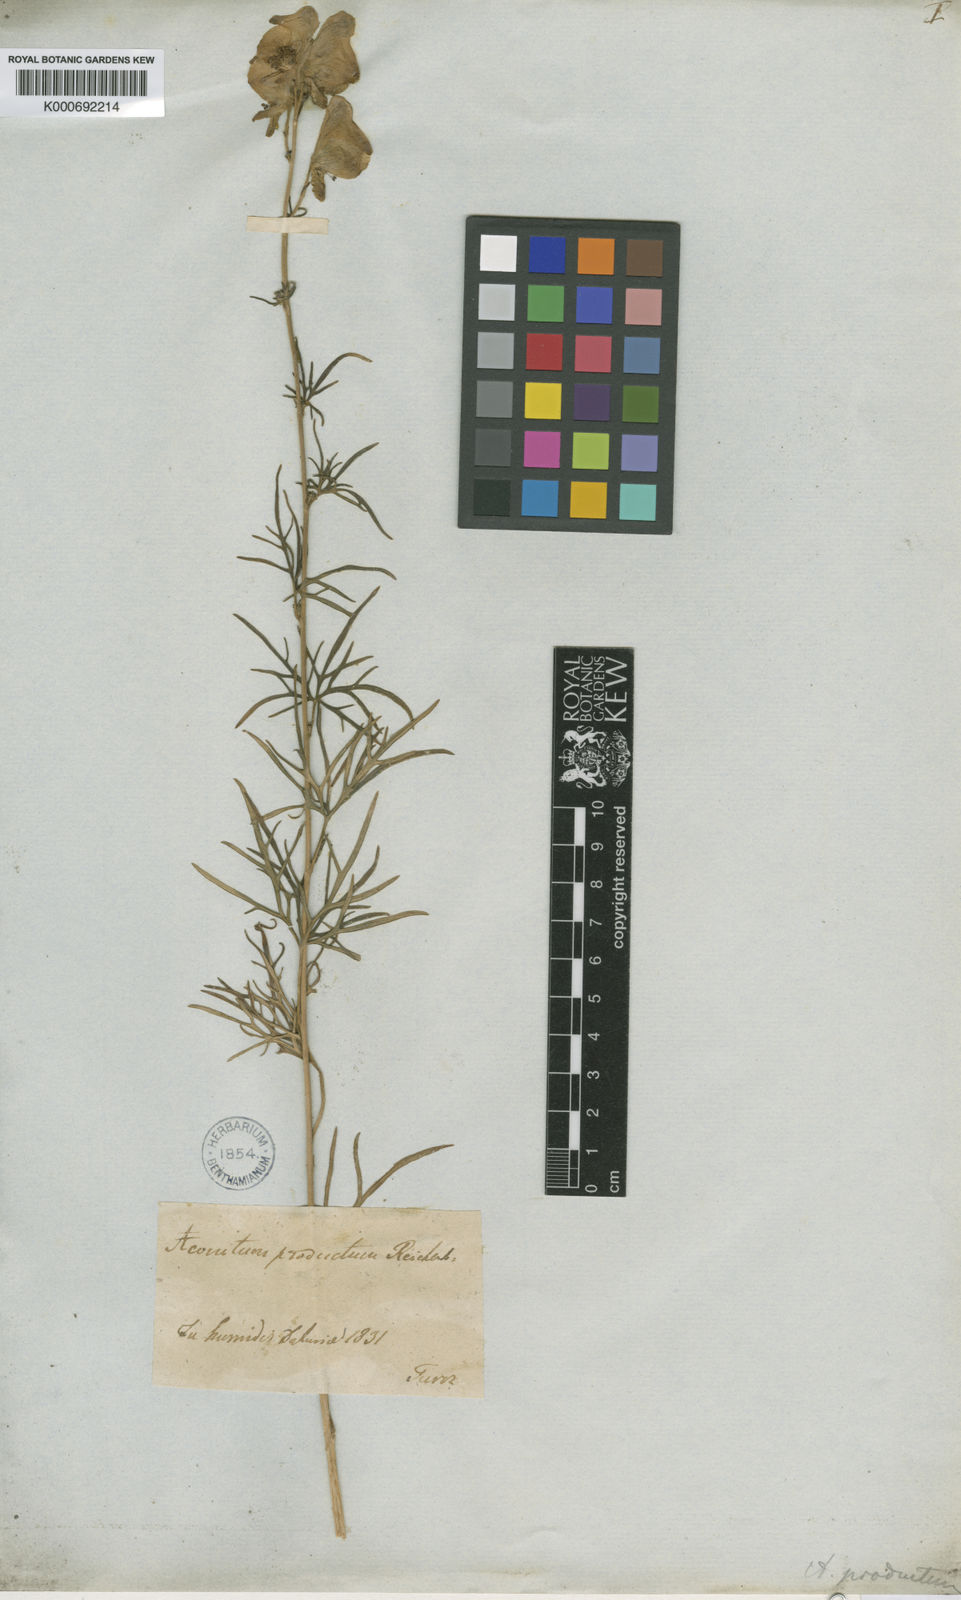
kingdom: Plantae
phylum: Tracheophyta
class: Magnoliopsida
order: Ranunculales
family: Ranunculaceae
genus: Aconitum
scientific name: Aconitum macrorhynchum
